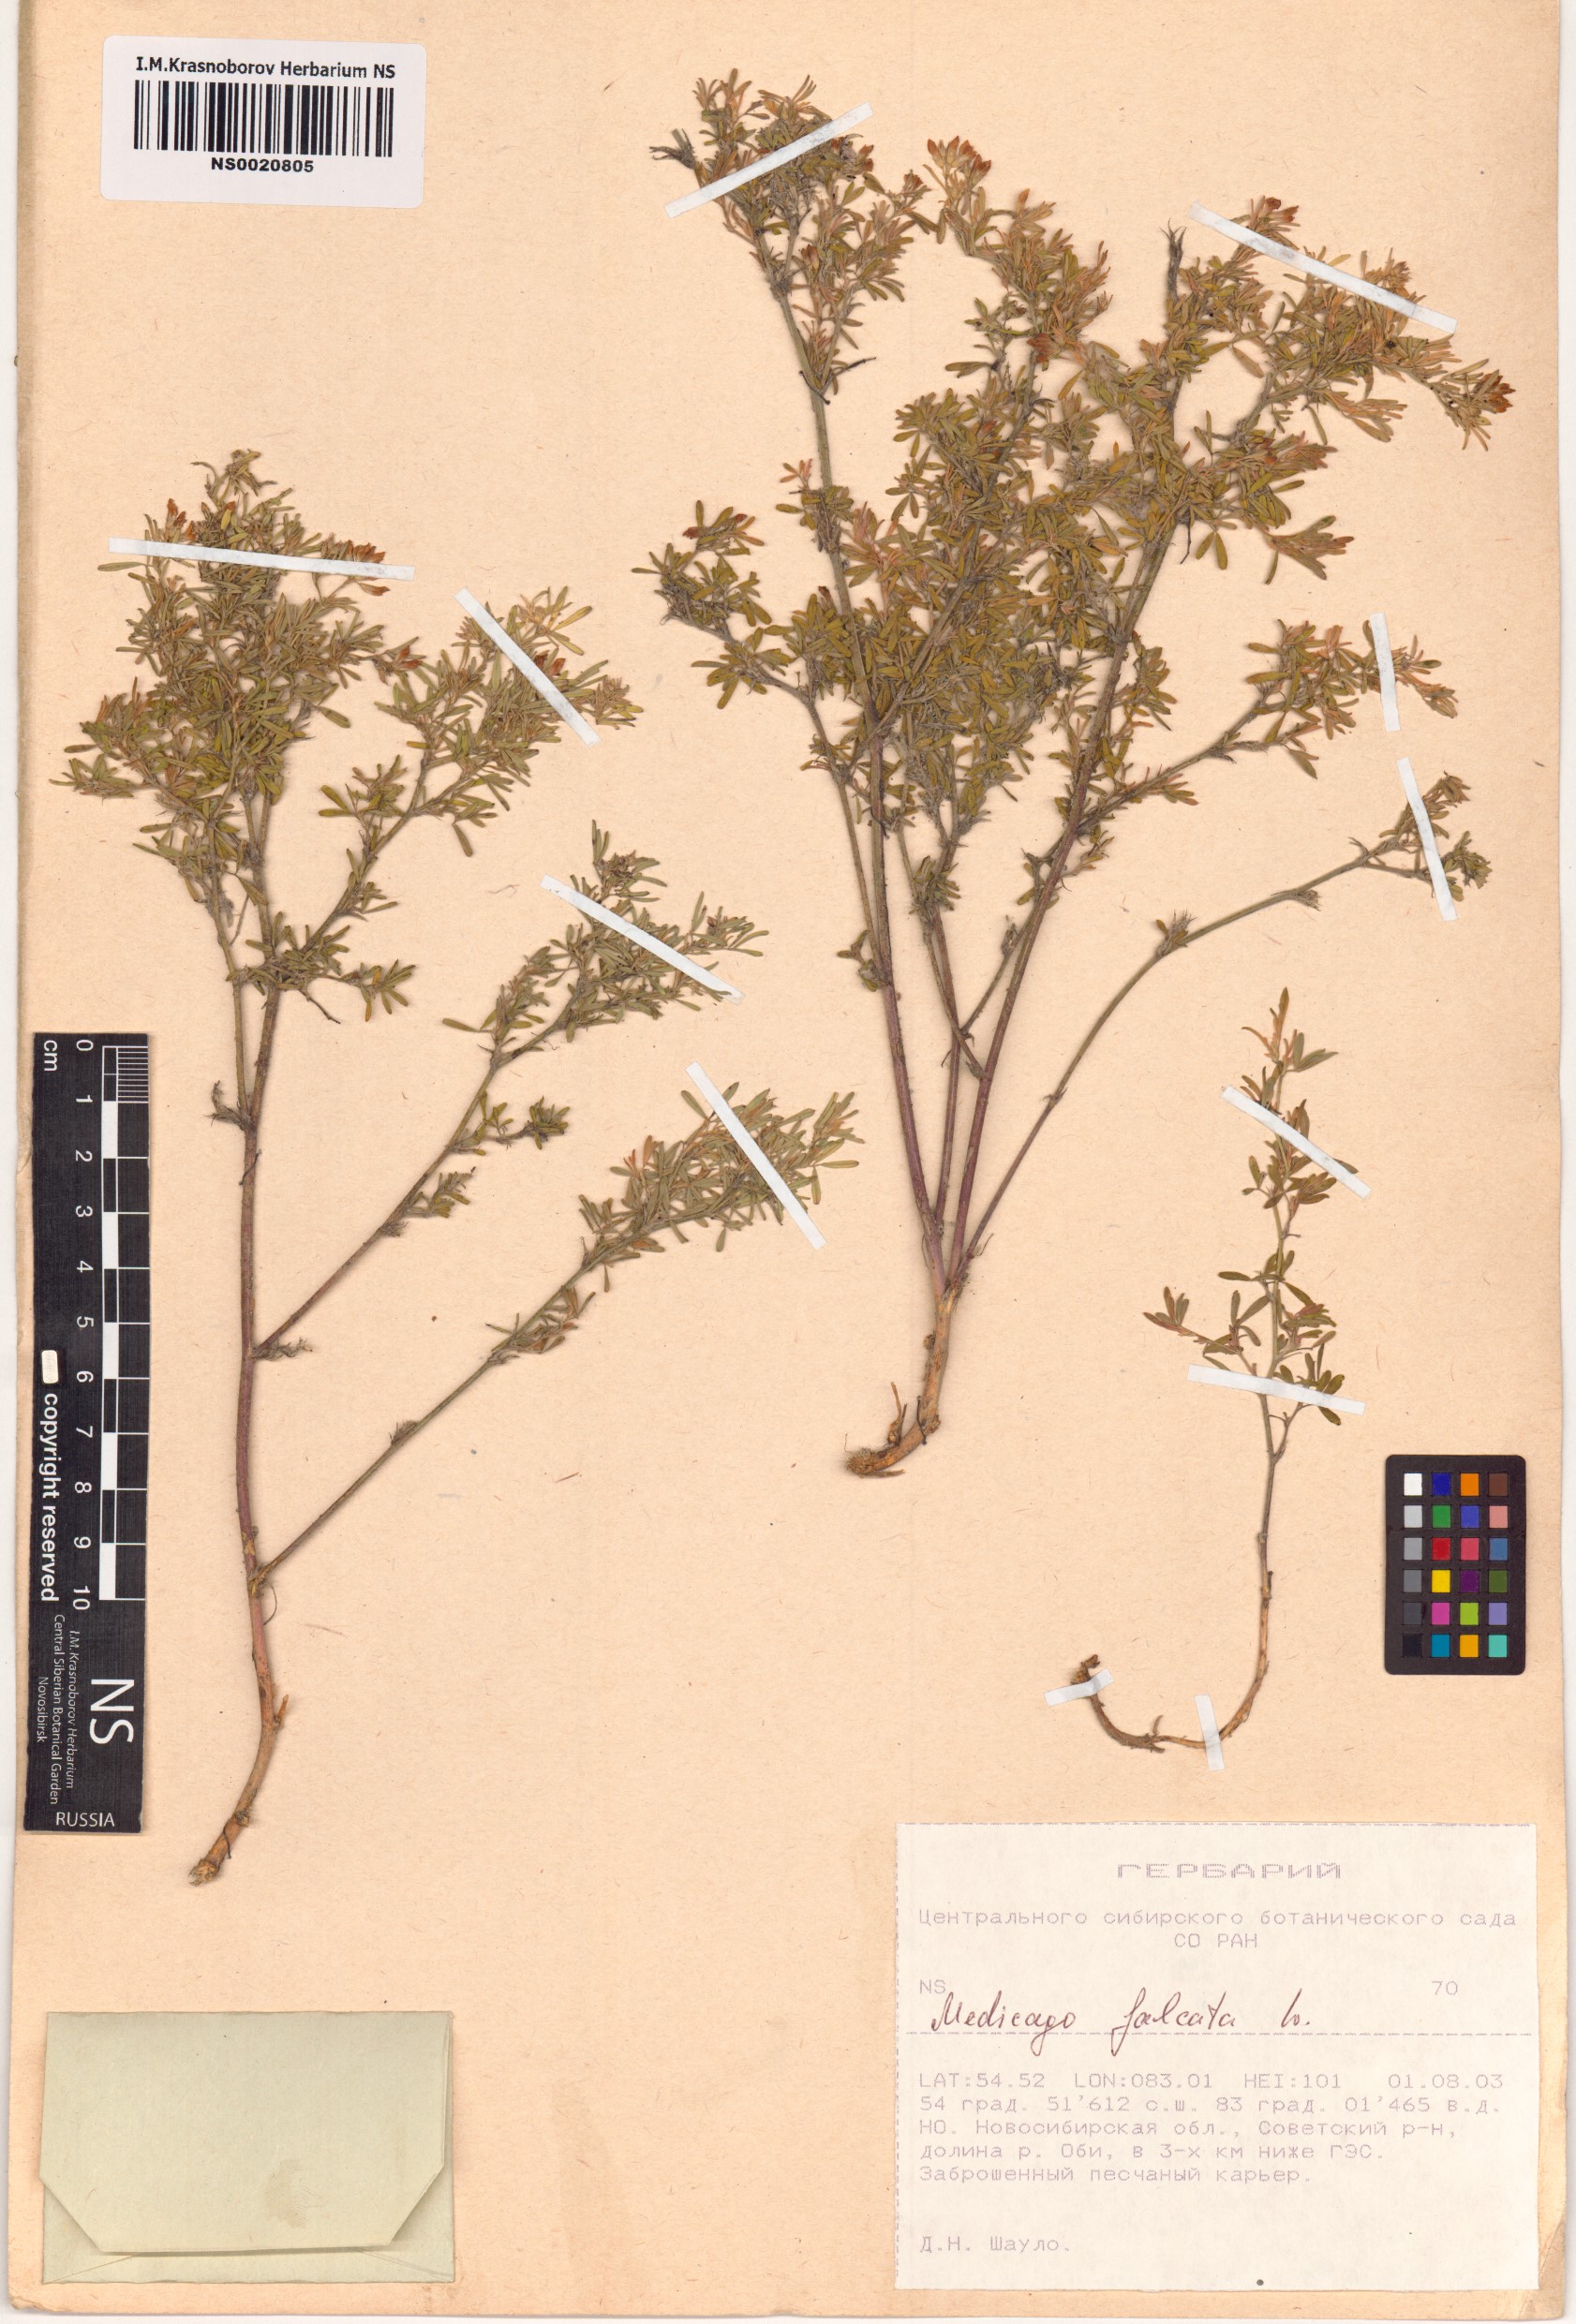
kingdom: Plantae
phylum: Tracheophyta
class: Magnoliopsida
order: Fabales
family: Fabaceae
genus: Medicago
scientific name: Medicago falcata
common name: Sickle medick
